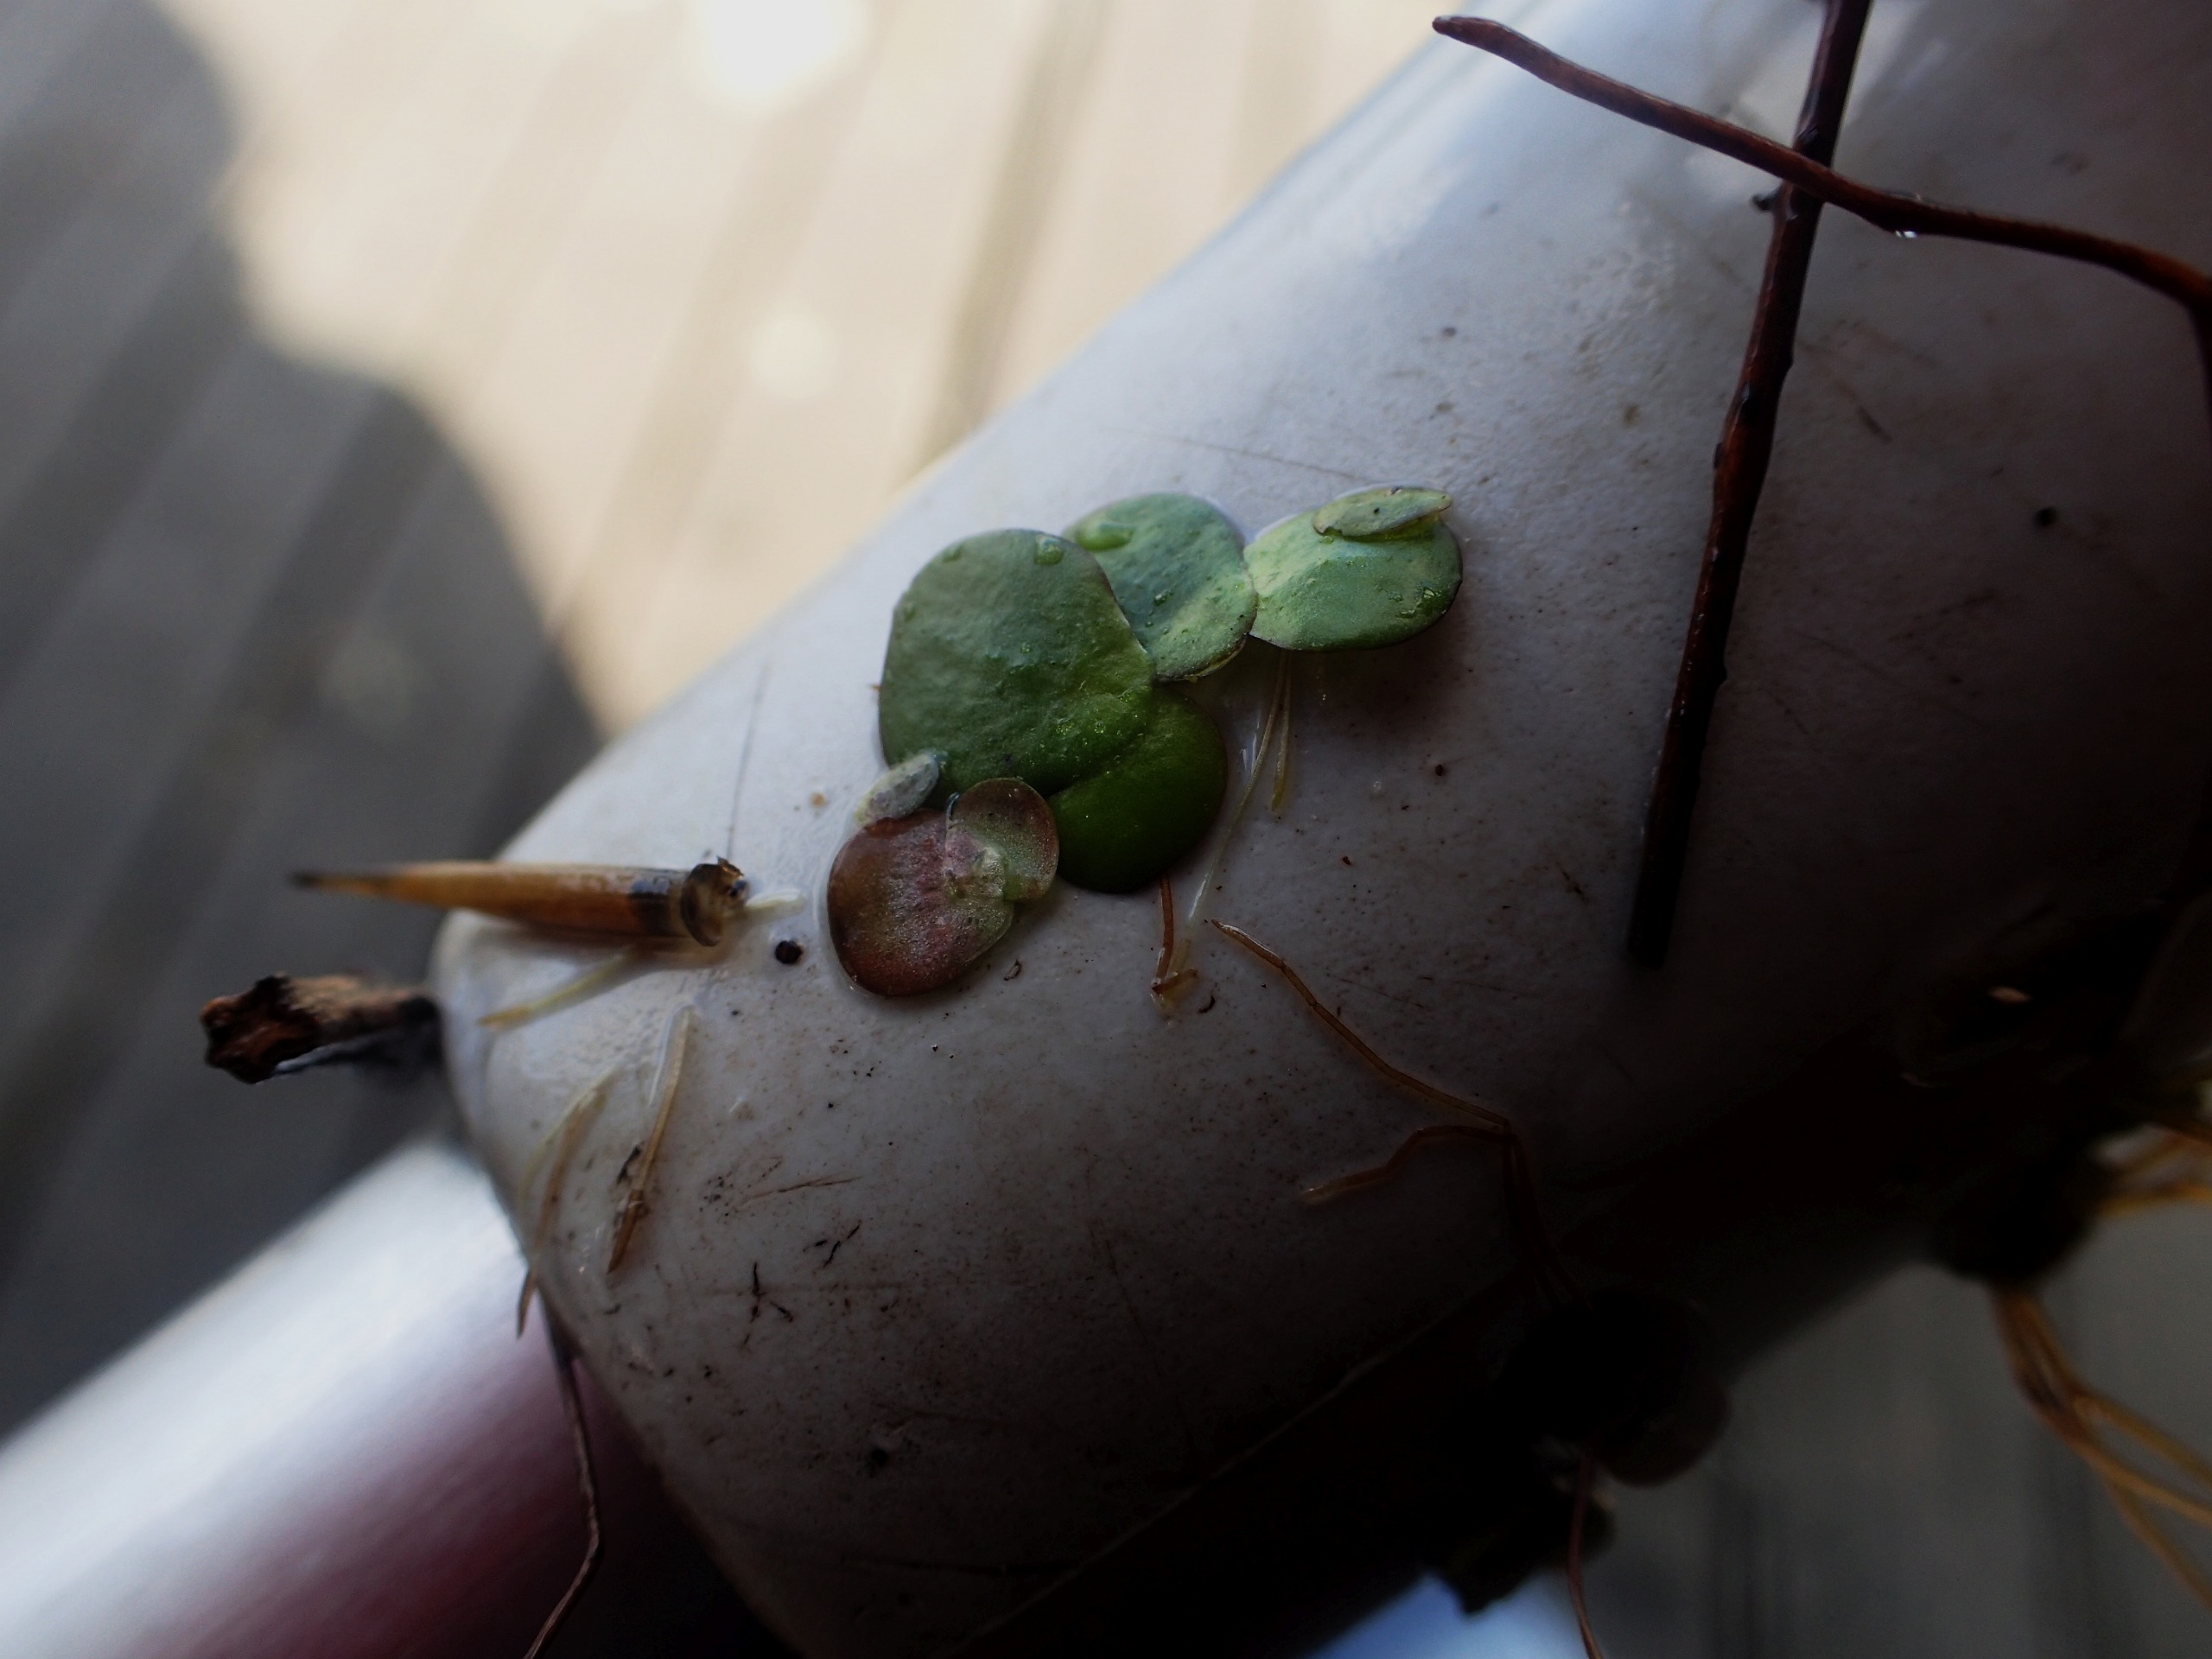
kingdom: Plantae
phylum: Tracheophyta
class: Liliopsida
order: Alismatales
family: Araceae
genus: Spirodela
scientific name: Spirodela polyrhiza
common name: Stor andemad
